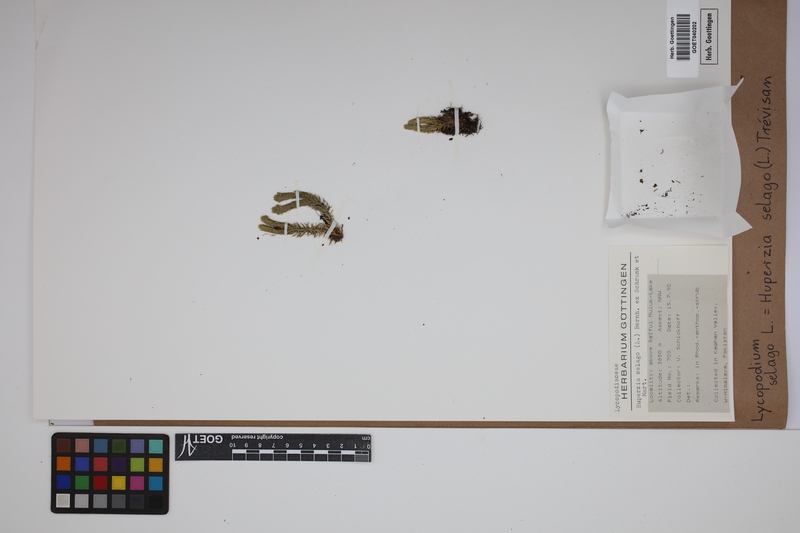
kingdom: Plantae
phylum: Tracheophyta
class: Lycopodiopsida
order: Lycopodiales
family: Lycopodiaceae
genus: Huperzia
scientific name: Huperzia selago
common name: Northern firmoss
